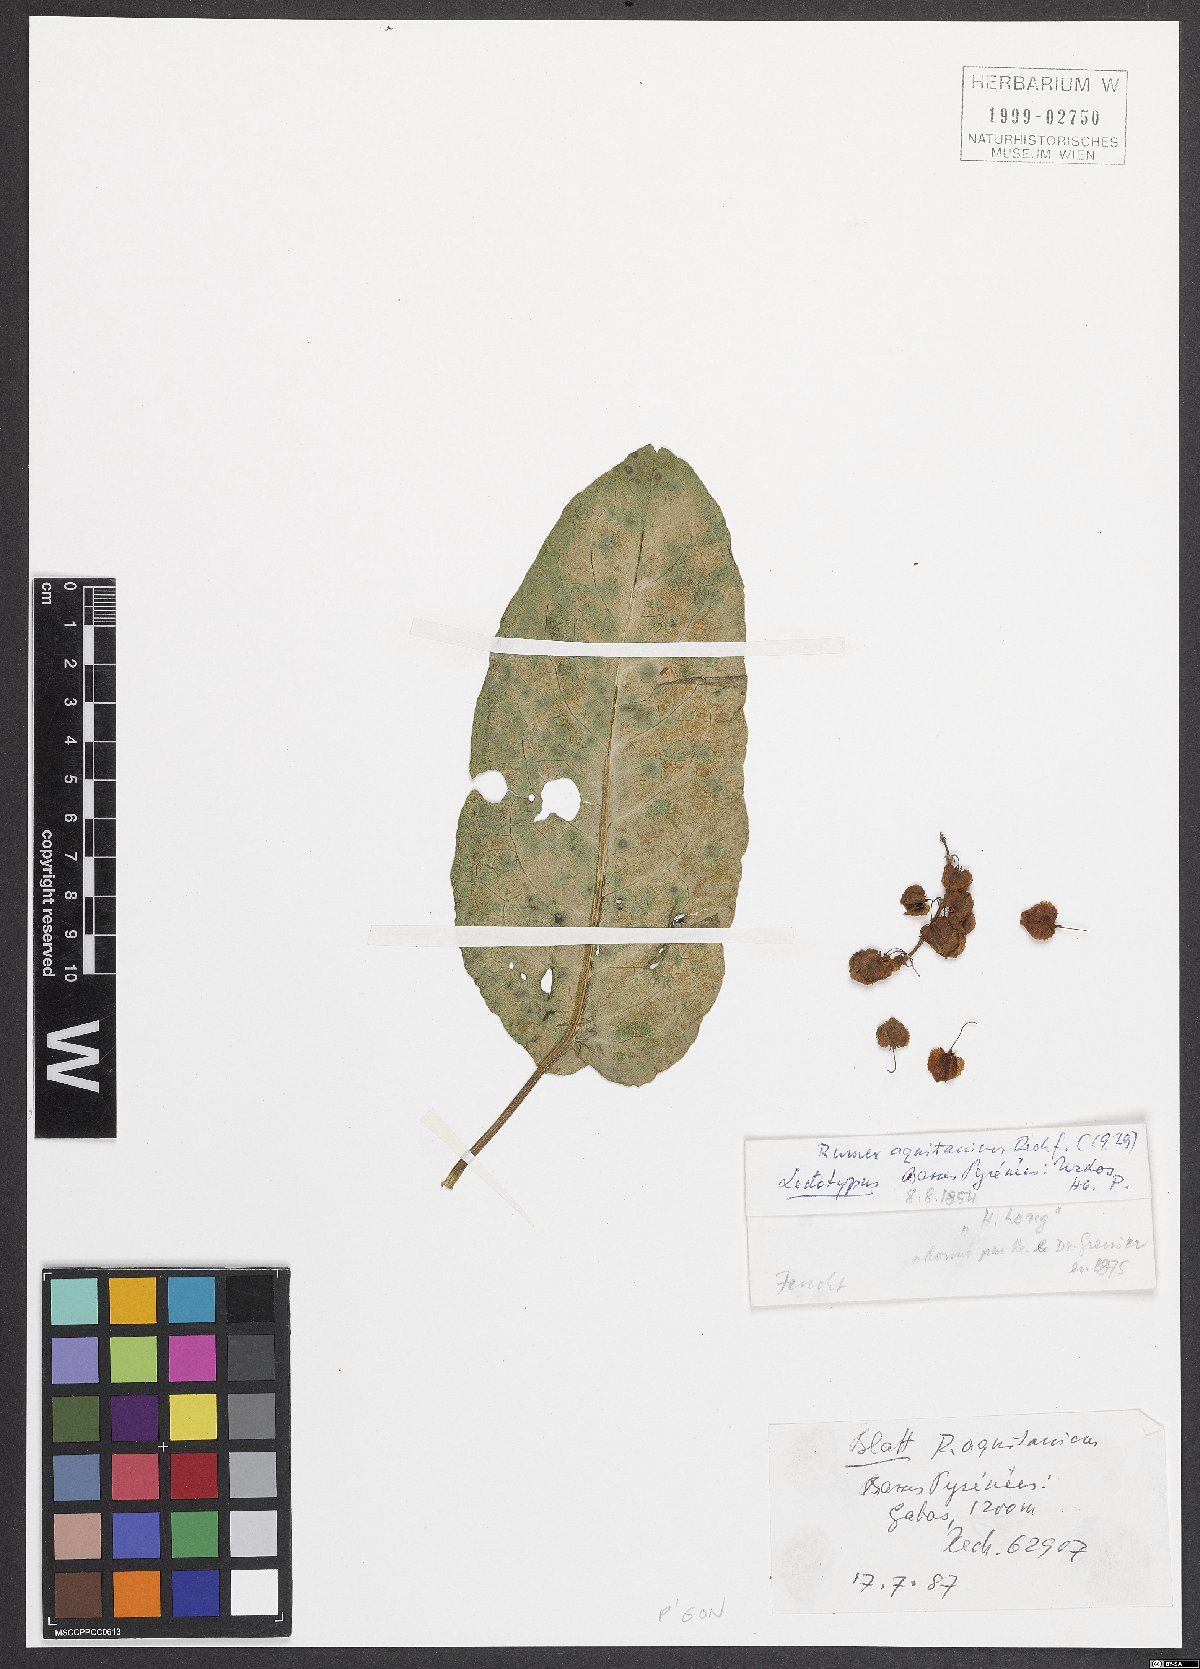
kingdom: Plantae
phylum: Tracheophyta
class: Magnoliopsida
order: Caryophyllales
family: Polygonaceae
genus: Rumex
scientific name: Rumex aquaticus
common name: Scottish dock
